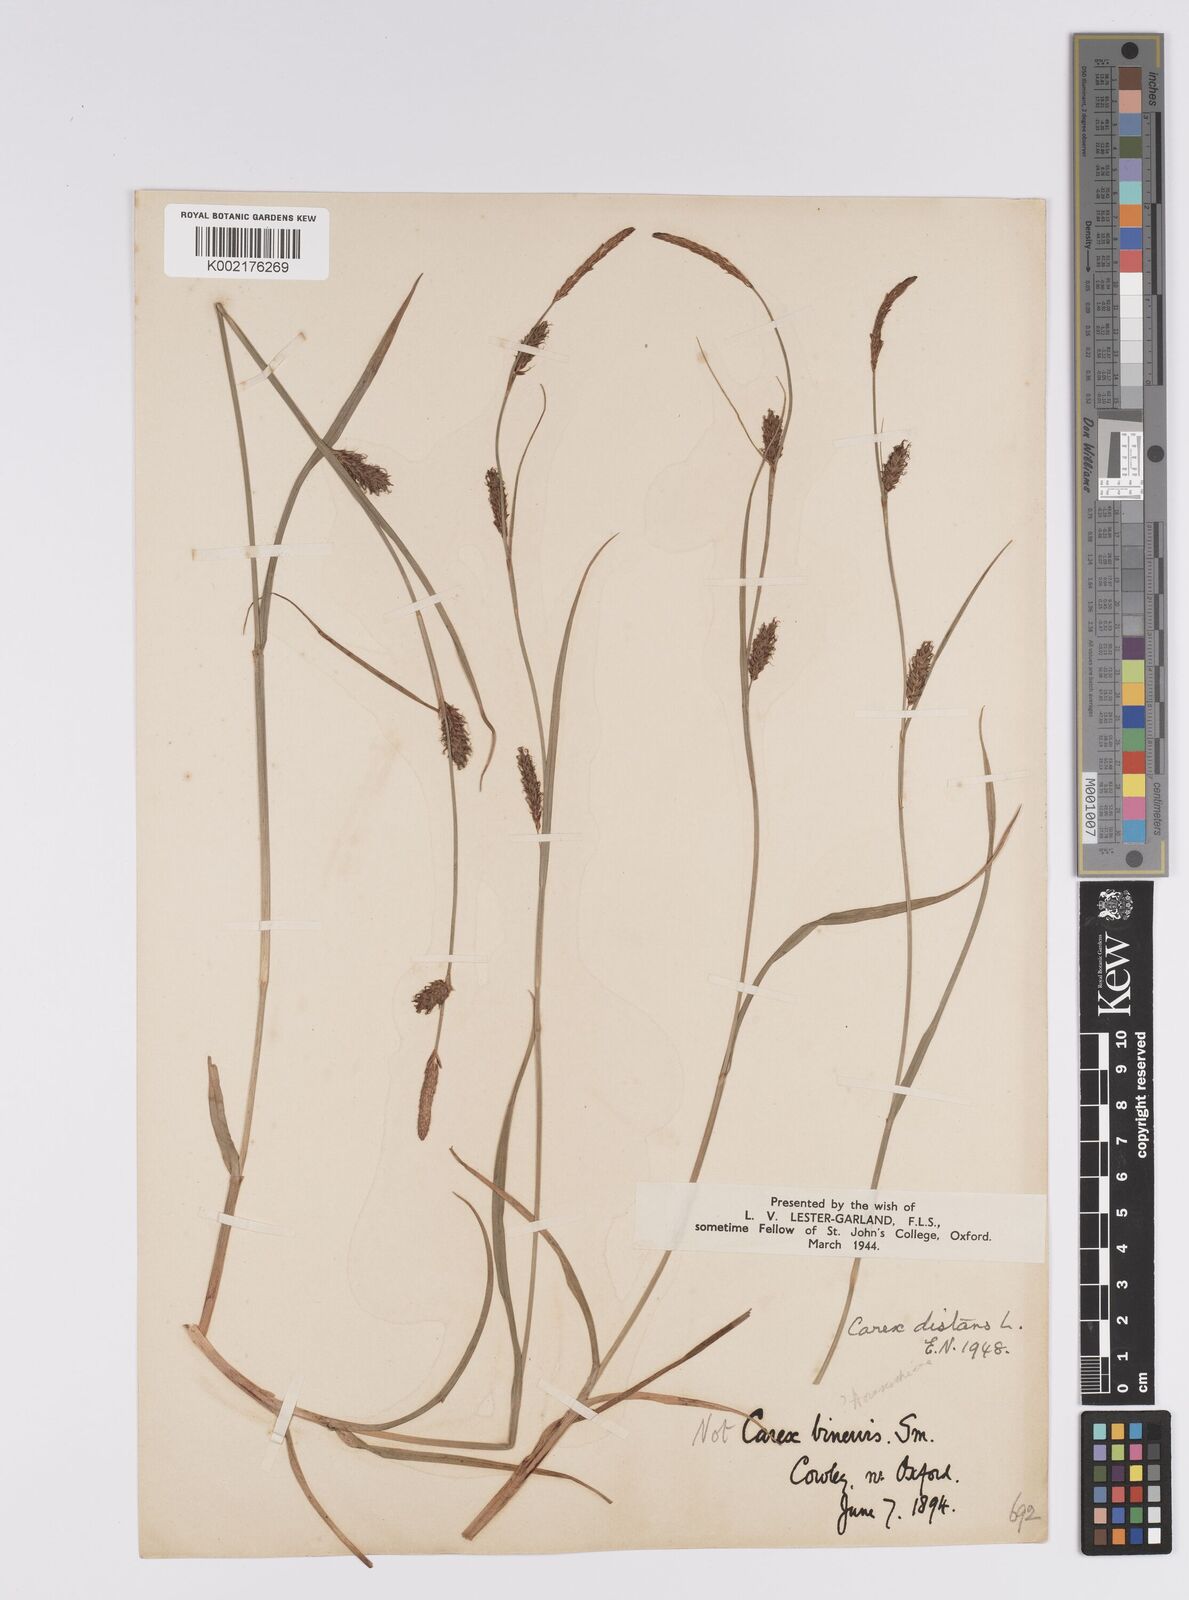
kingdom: Plantae
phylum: Tracheophyta
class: Liliopsida
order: Poales
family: Cyperaceae
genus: Carex
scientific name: Carex distans
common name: Distant sedge
